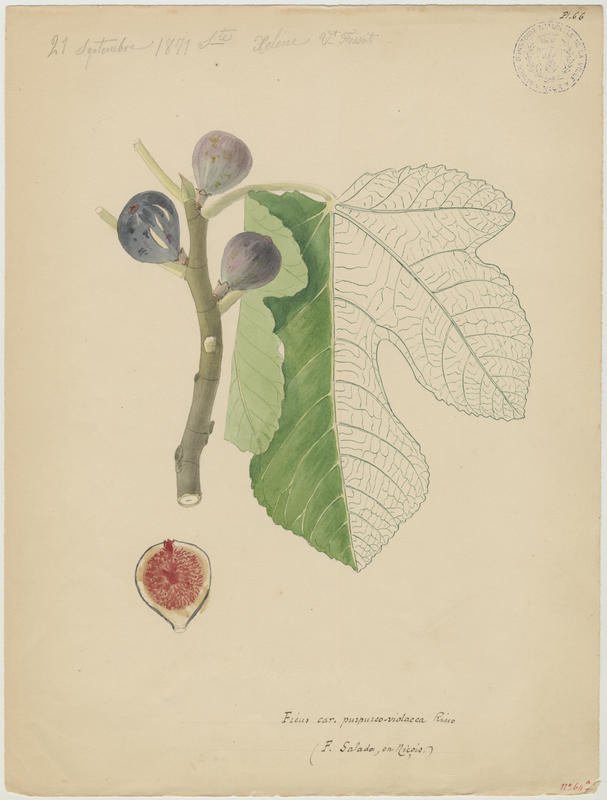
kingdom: Plantae
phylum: Tracheophyta
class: Magnoliopsida
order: Rosales
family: Moraceae
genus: Ficus
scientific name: Ficus carica
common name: Fig
